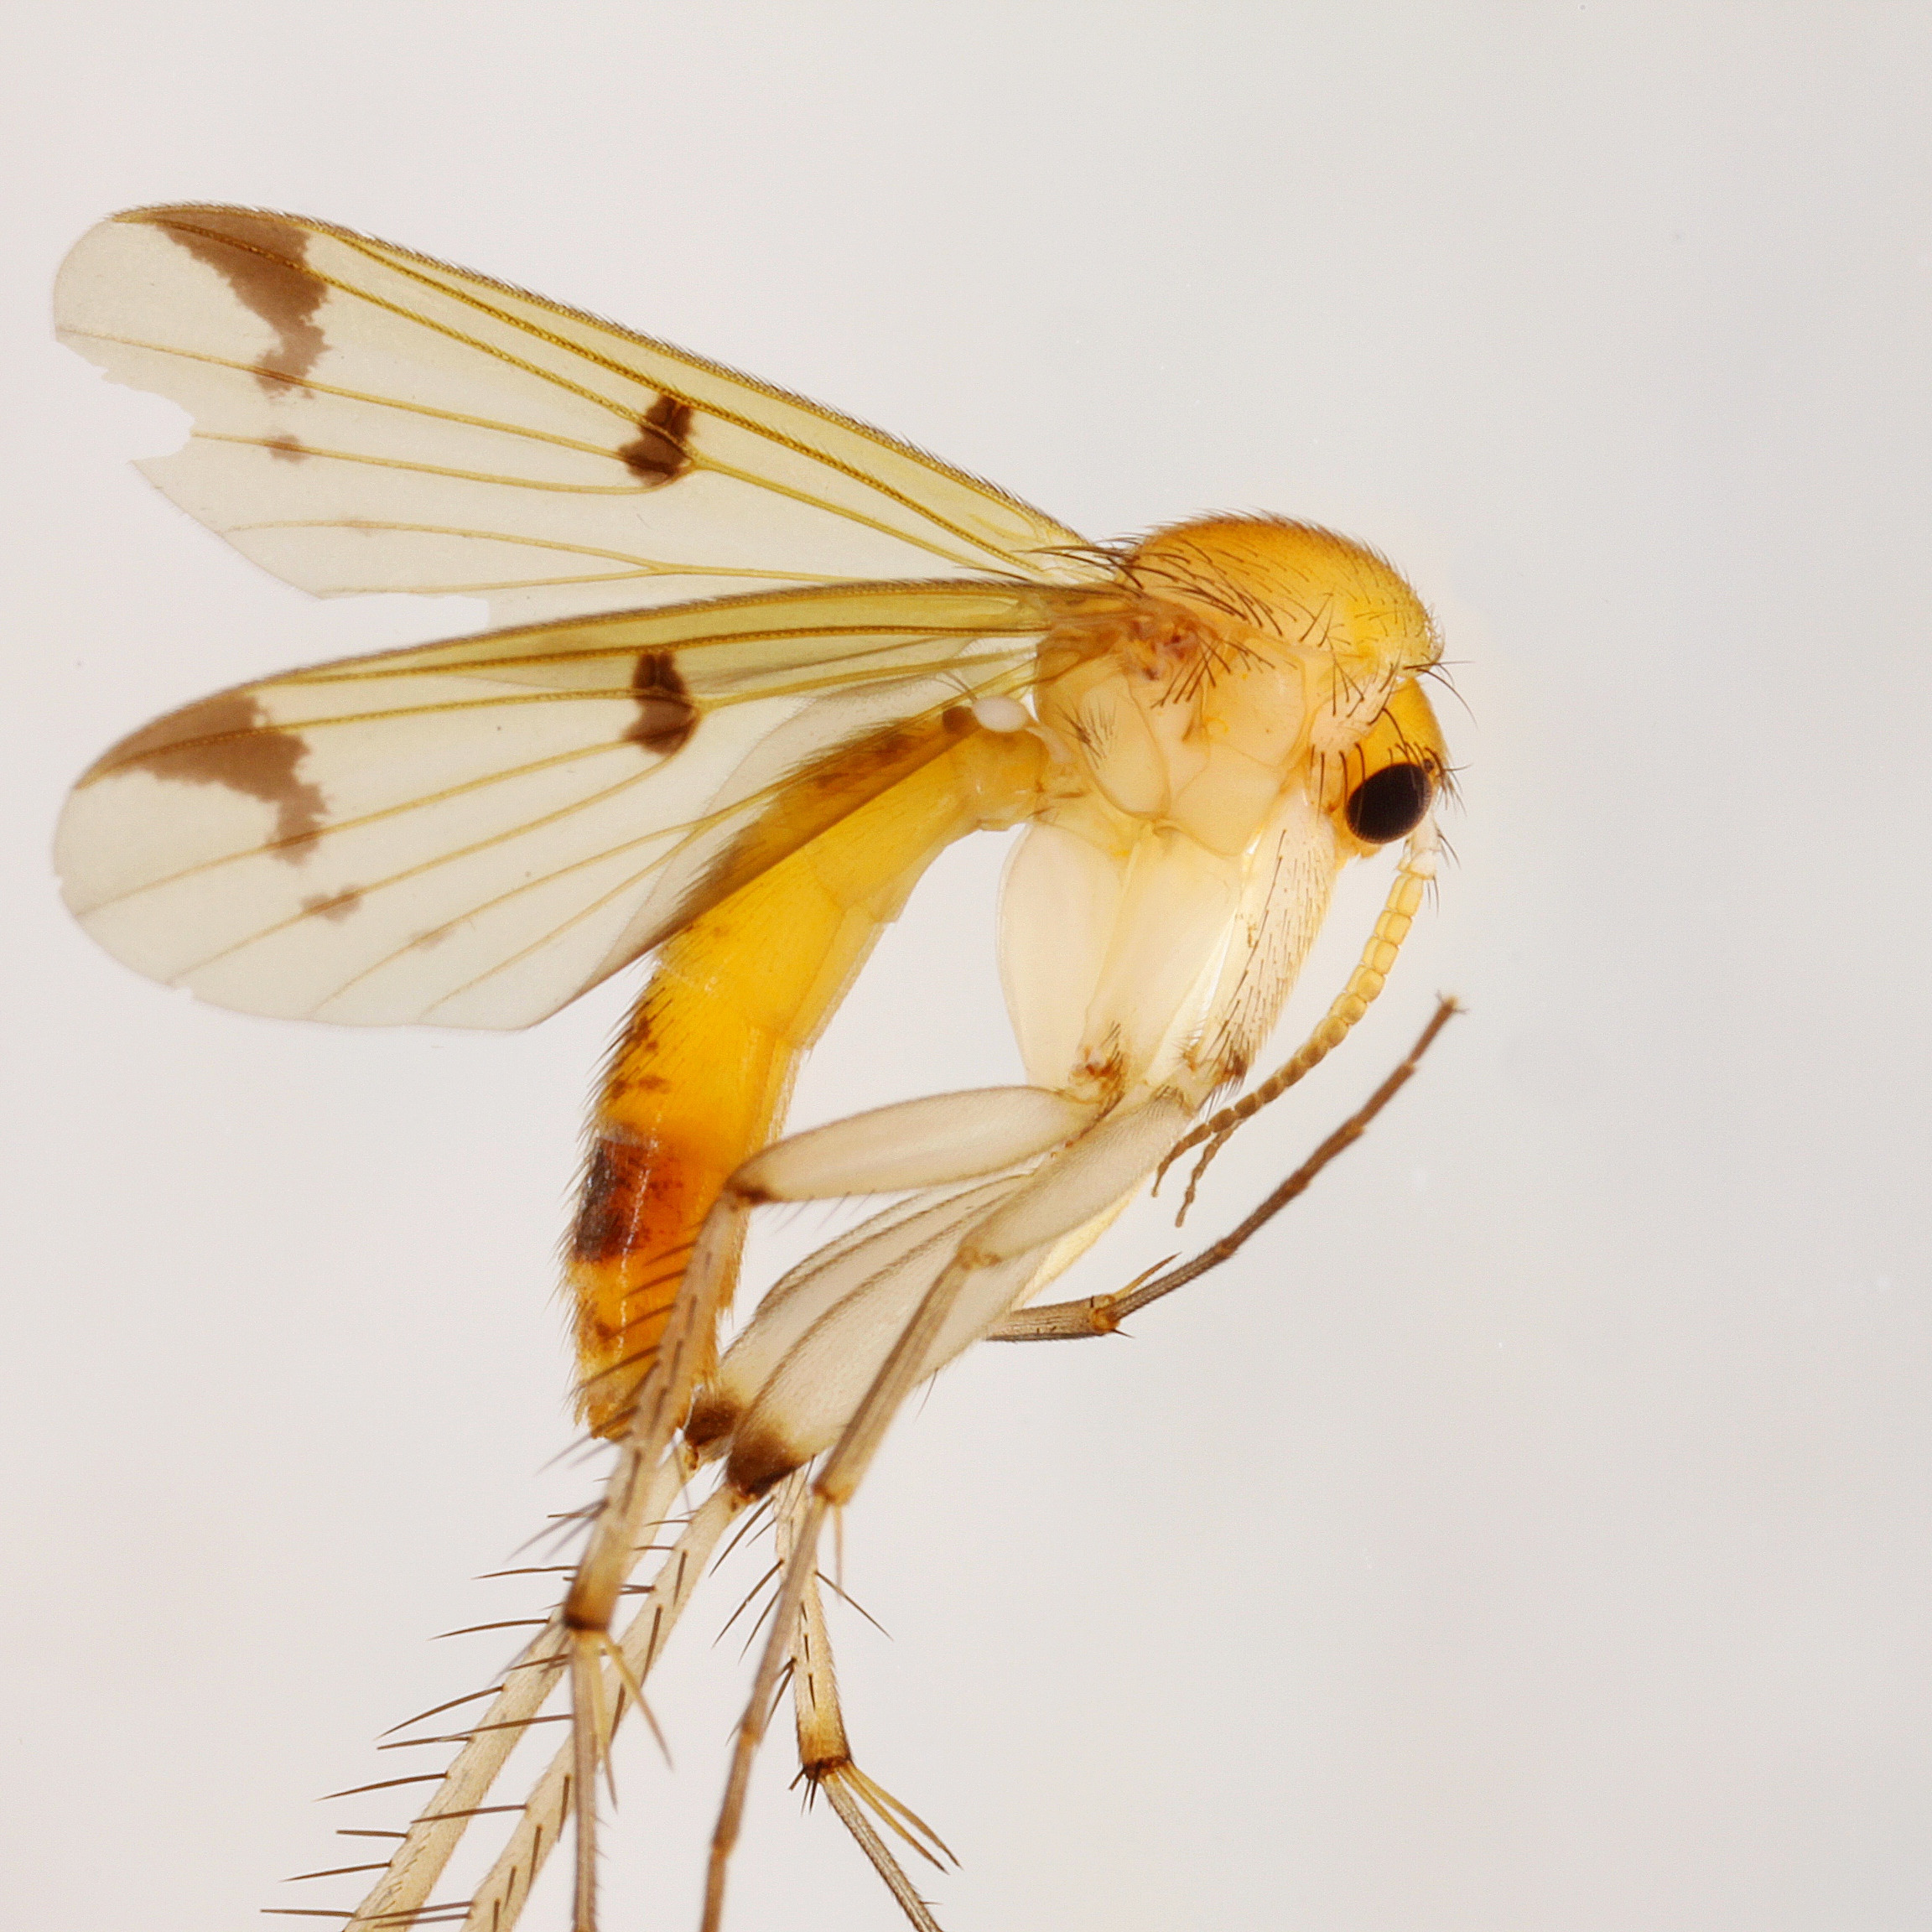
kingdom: Animalia
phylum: Arthropoda
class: Insecta
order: Diptera
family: Mycetophilidae
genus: Mycetophila
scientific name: Mycetophila cingulum
